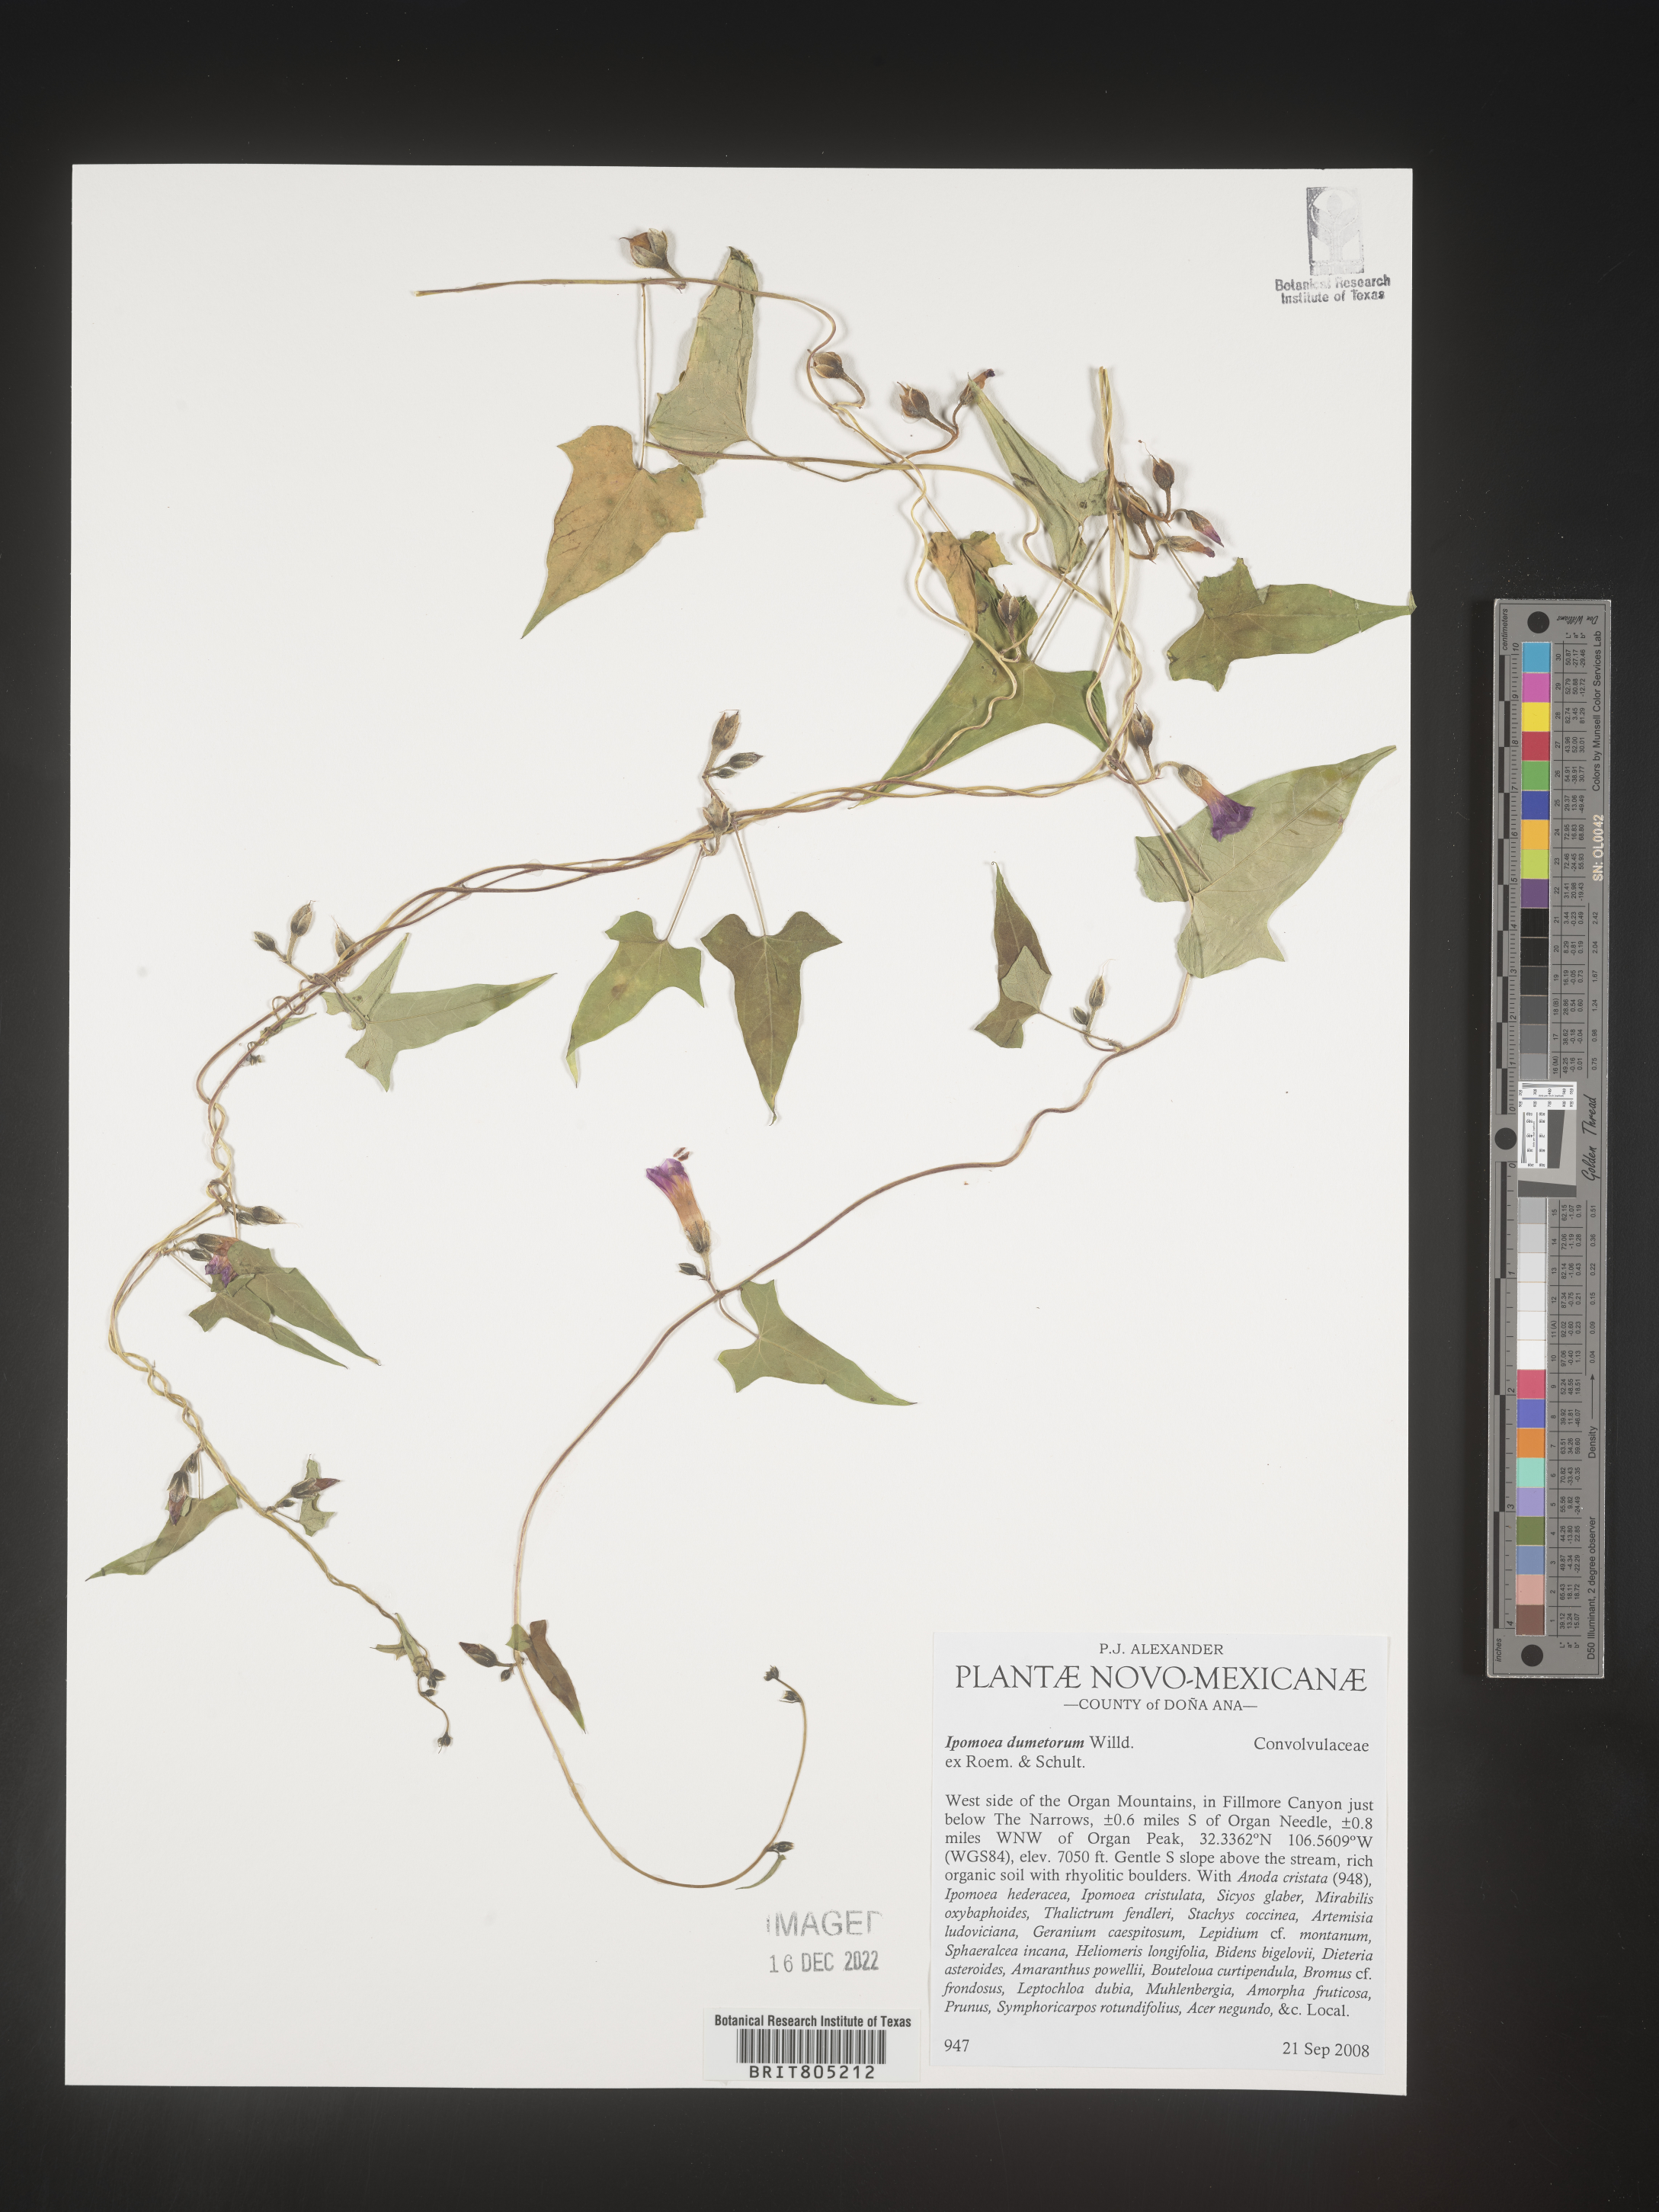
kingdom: Plantae
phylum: Tracheophyta
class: Magnoliopsida
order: Solanales
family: Convolvulaceae
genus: Ipomoea
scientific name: Ipomoea
